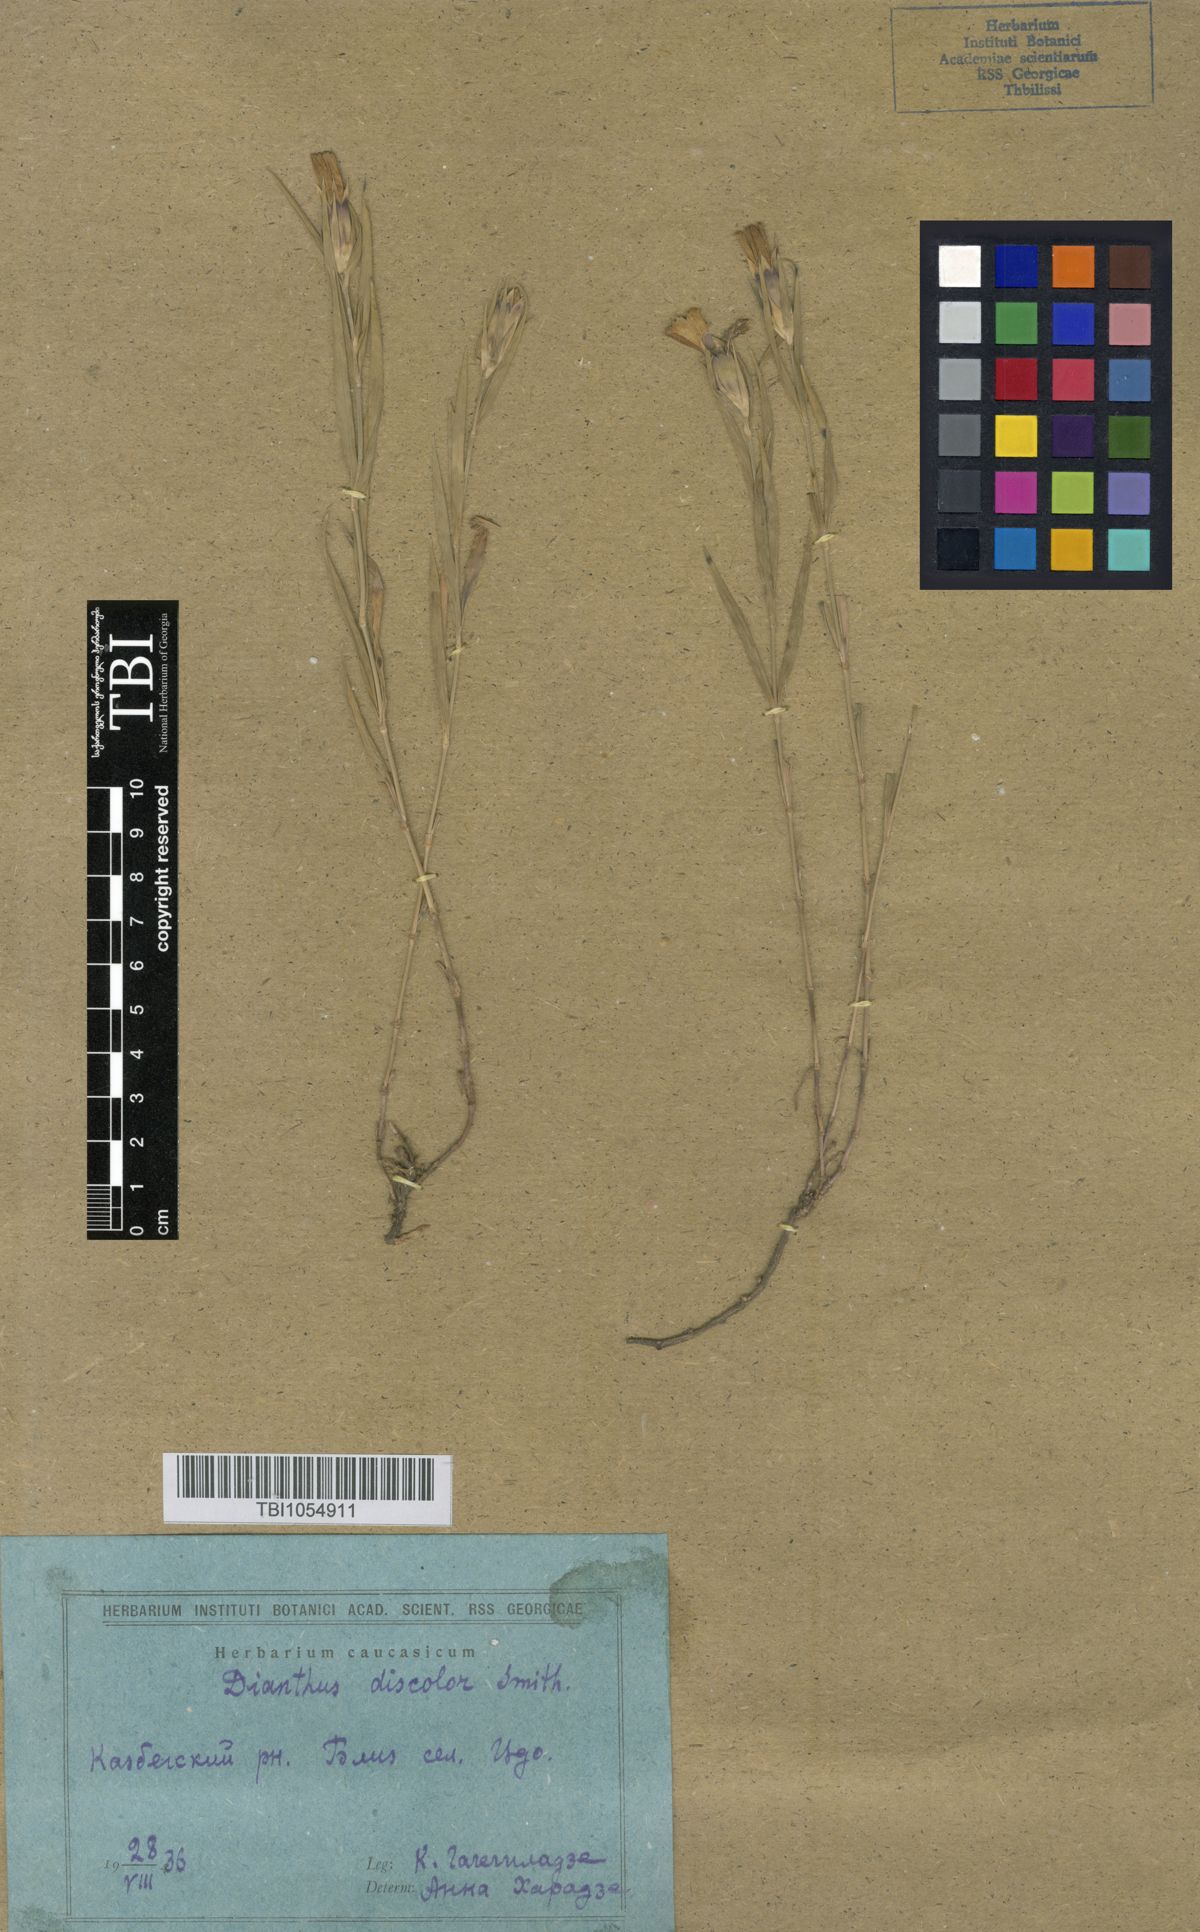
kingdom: Plantae
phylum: Tracheophyta
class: Magnoliopsida
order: Caryophyllales
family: Caryophyllaceae
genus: Dianthus
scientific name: Dianthus caucaseus
